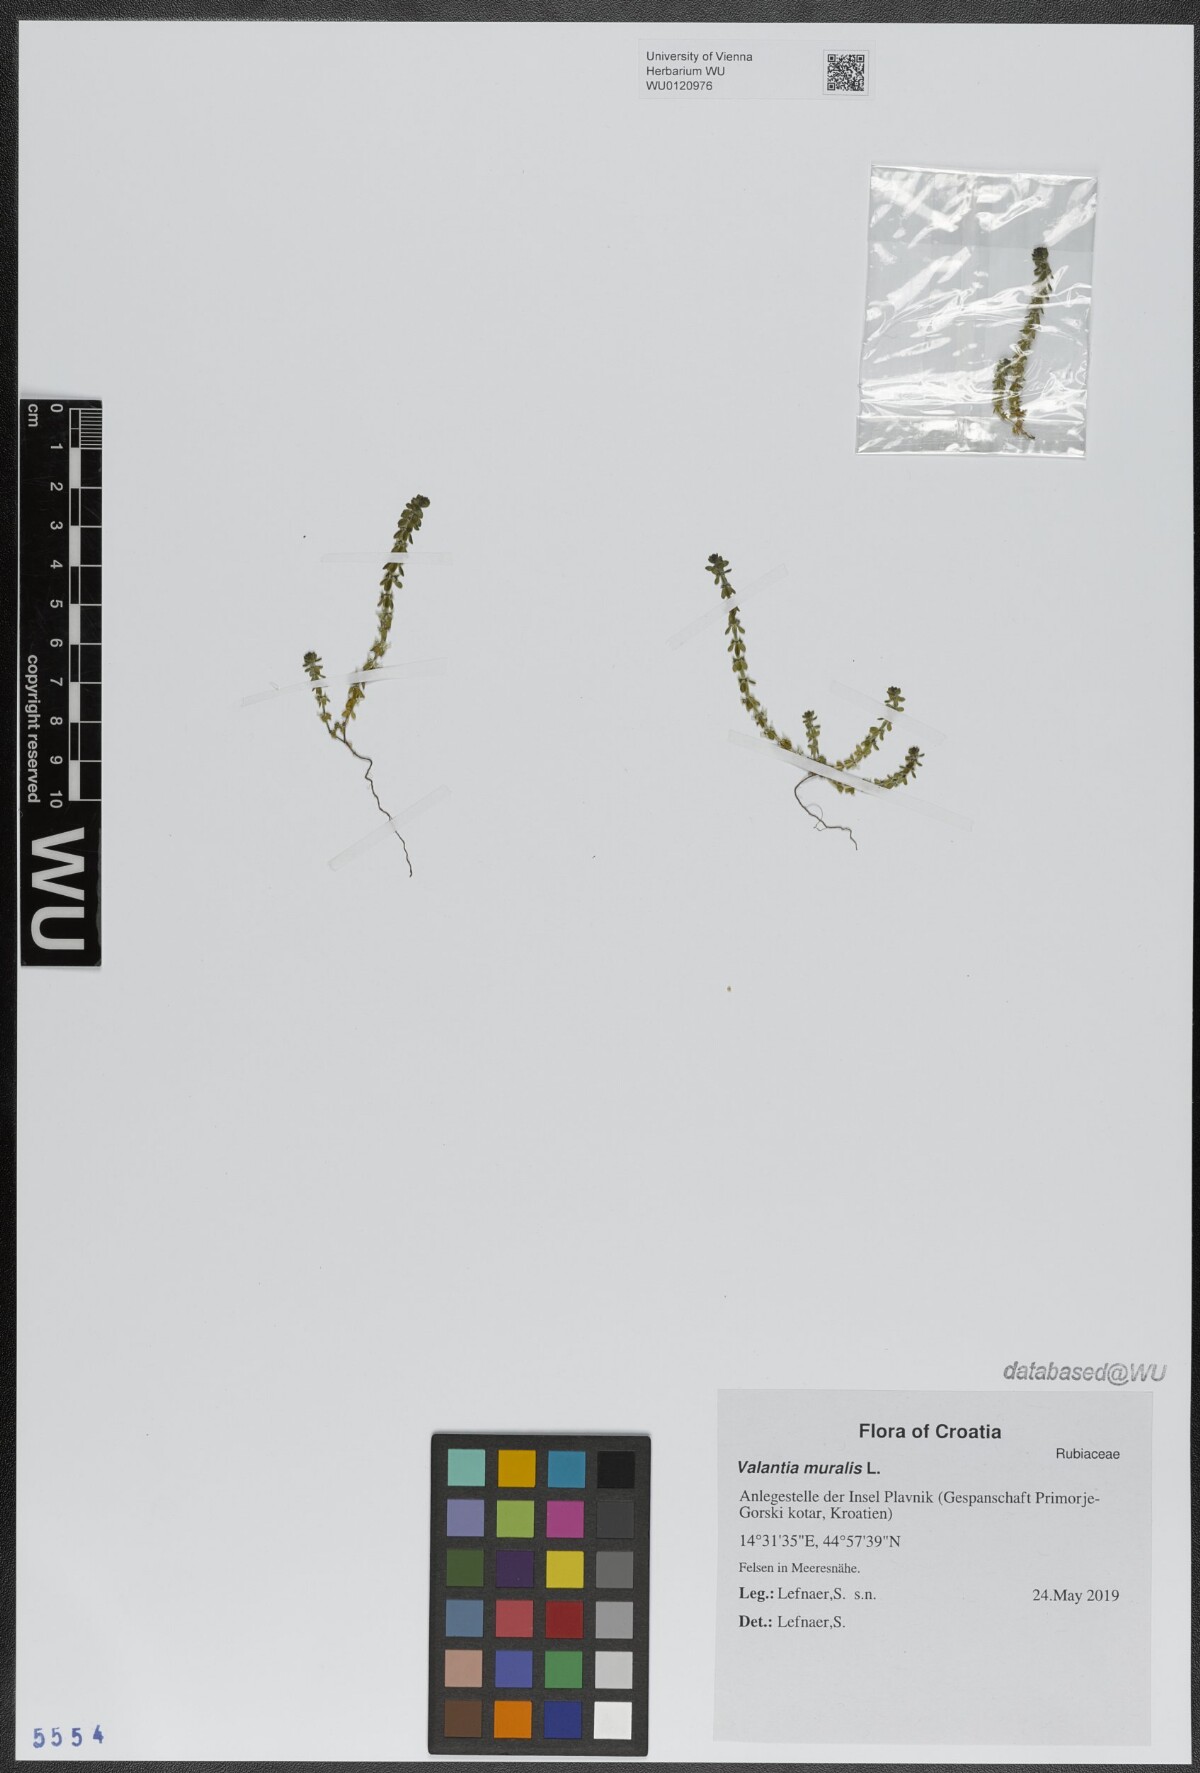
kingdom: Plantae
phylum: Tracheophyta
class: Magnoliopsida
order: Gentianales
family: Rubiaceae
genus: Valantia
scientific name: Valantia muralis
